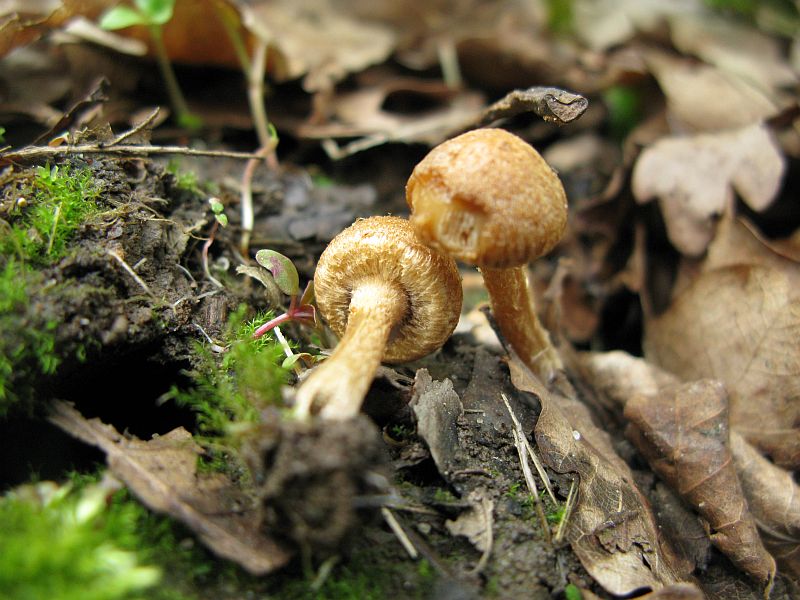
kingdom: Fungi
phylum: Basidiomycota
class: Agaricomycetes
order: Agaricales
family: Psathyrellaceae
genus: Lacrymaria
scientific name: Lacrymaria lacrymabunda
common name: grædende mørkhat
